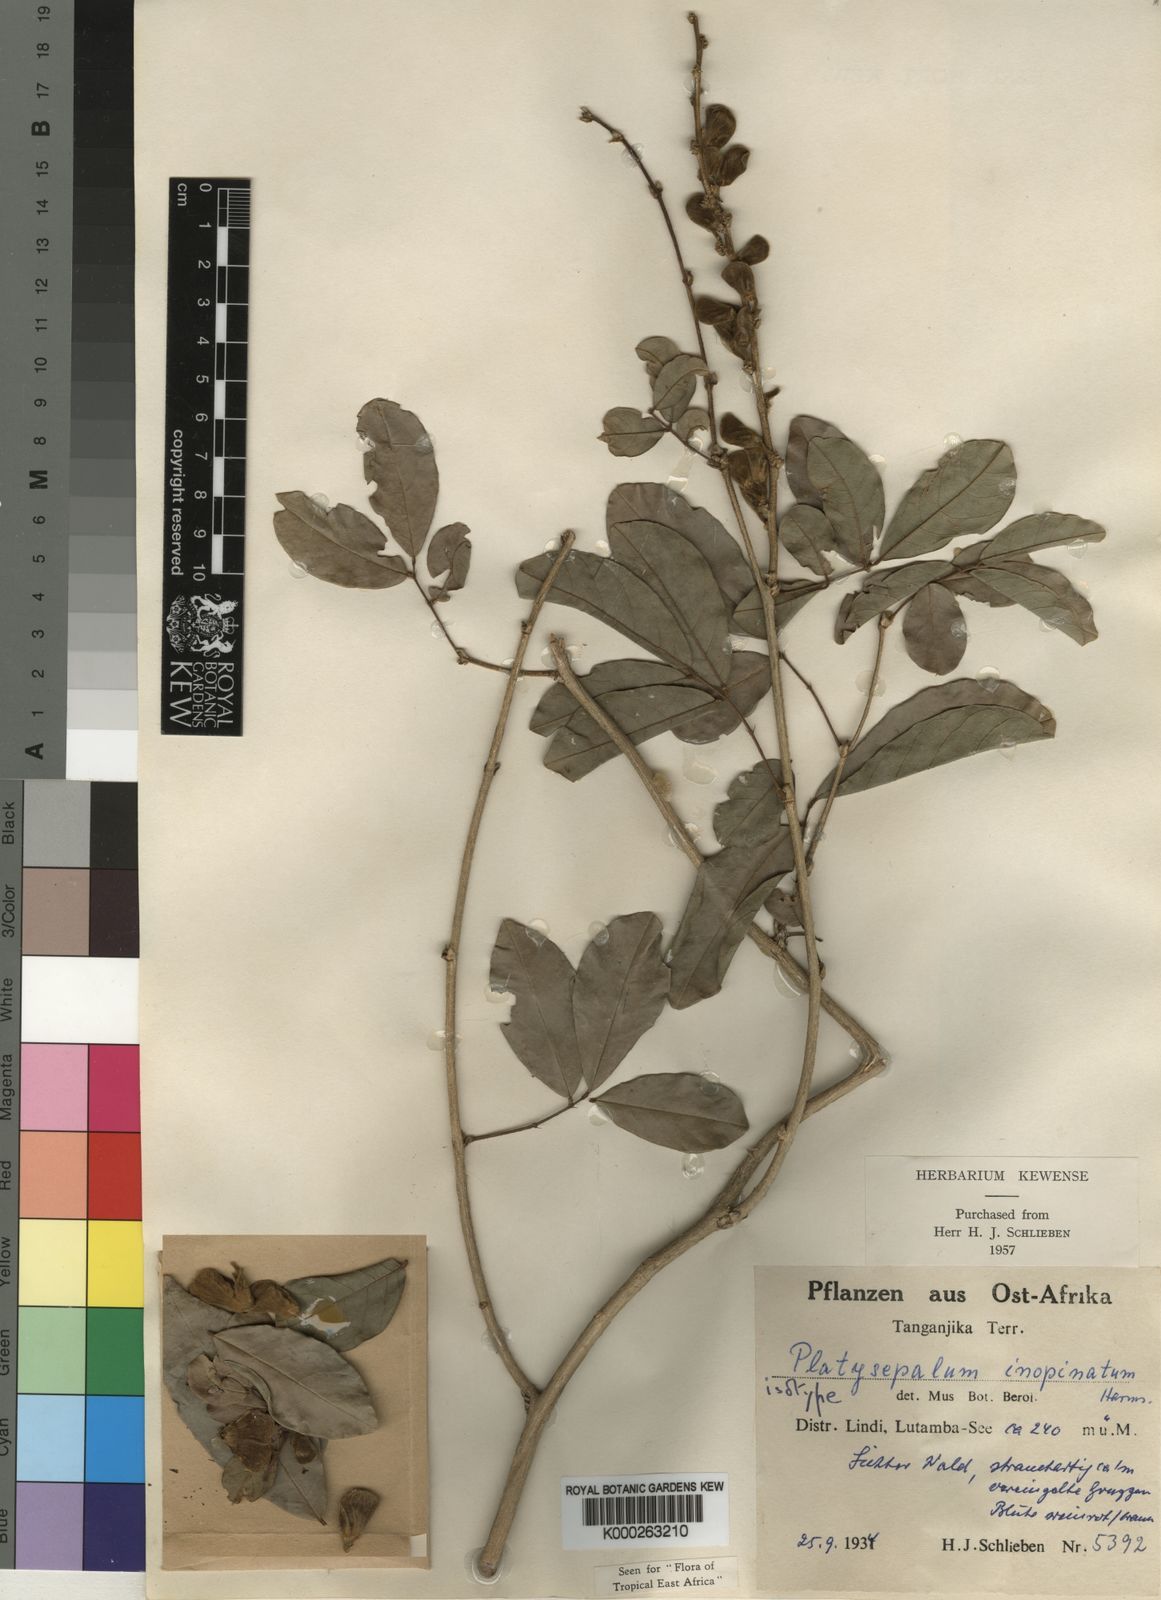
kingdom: Plantae
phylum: Tracheophyta
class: Magnoliopsida
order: Fabales
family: Fabaceae
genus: Platysepalum
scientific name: Platysepalum inopinatum
